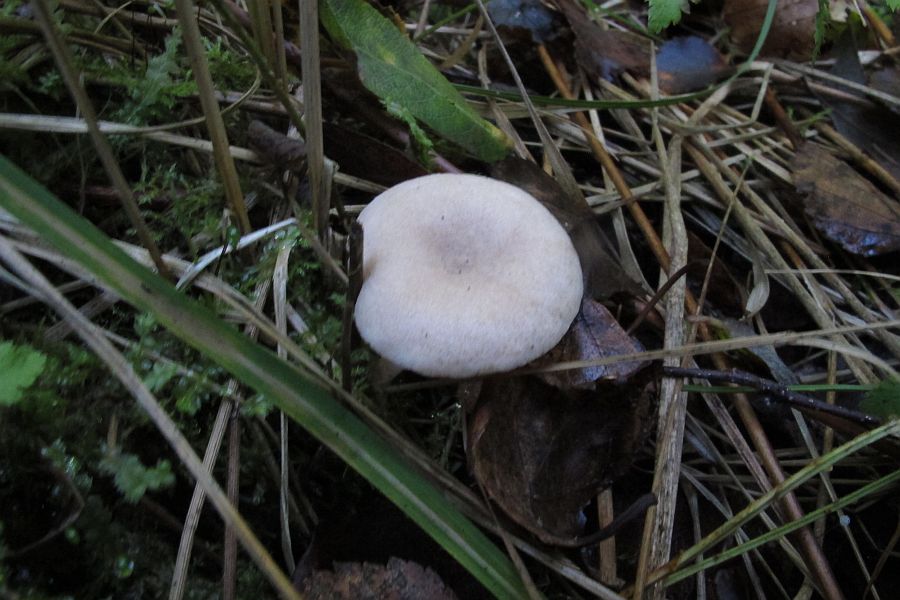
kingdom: Fungi
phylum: Basidiomycota
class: Agaricomycetes
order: Russulales
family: Russulaceae
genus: Lactarius
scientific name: Lactarius obscuratus
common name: elle-mælkehat
